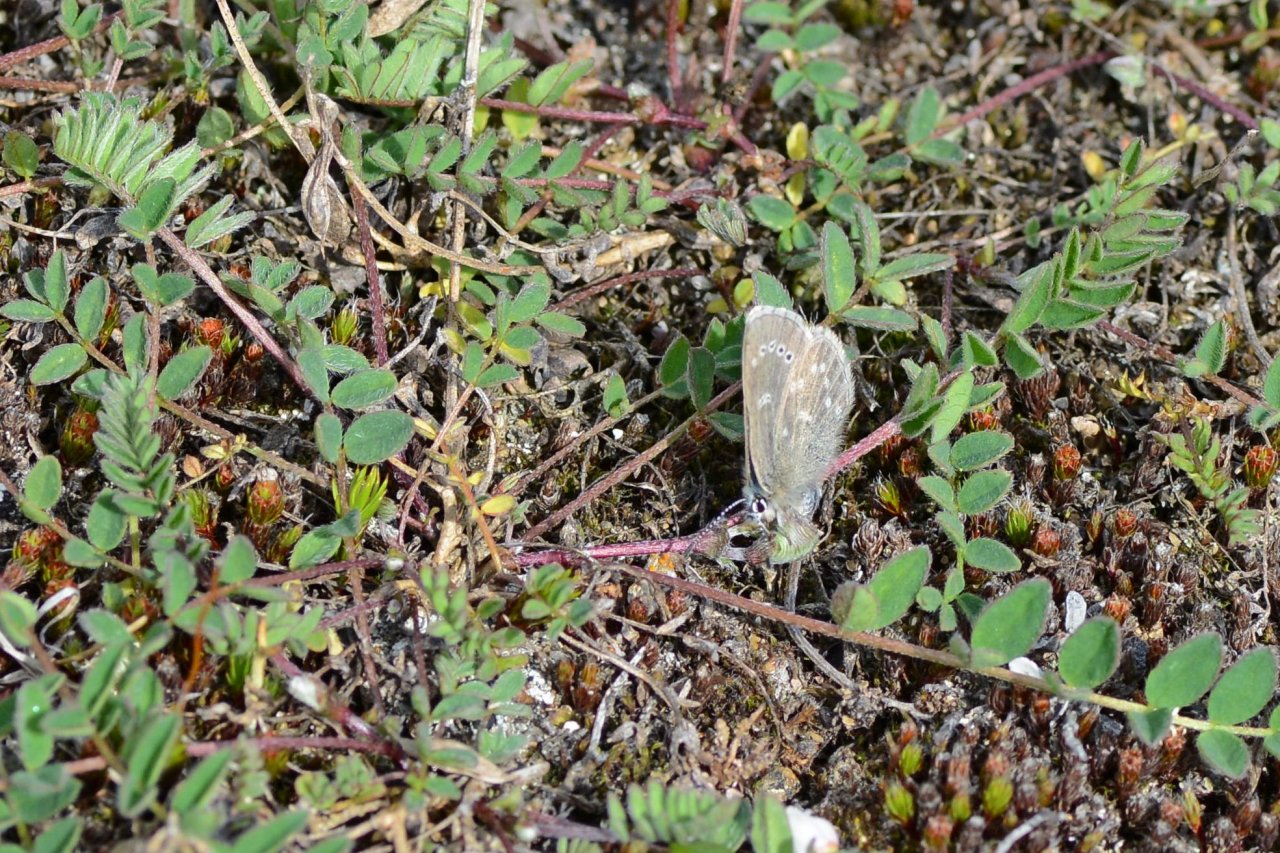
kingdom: Animalia
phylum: Arthropoda
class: Insecta
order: Lepidoptera
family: Lycaenidae
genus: Glaucopsyche
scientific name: Glaucopsyche lygdamus
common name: Silvery Blue
